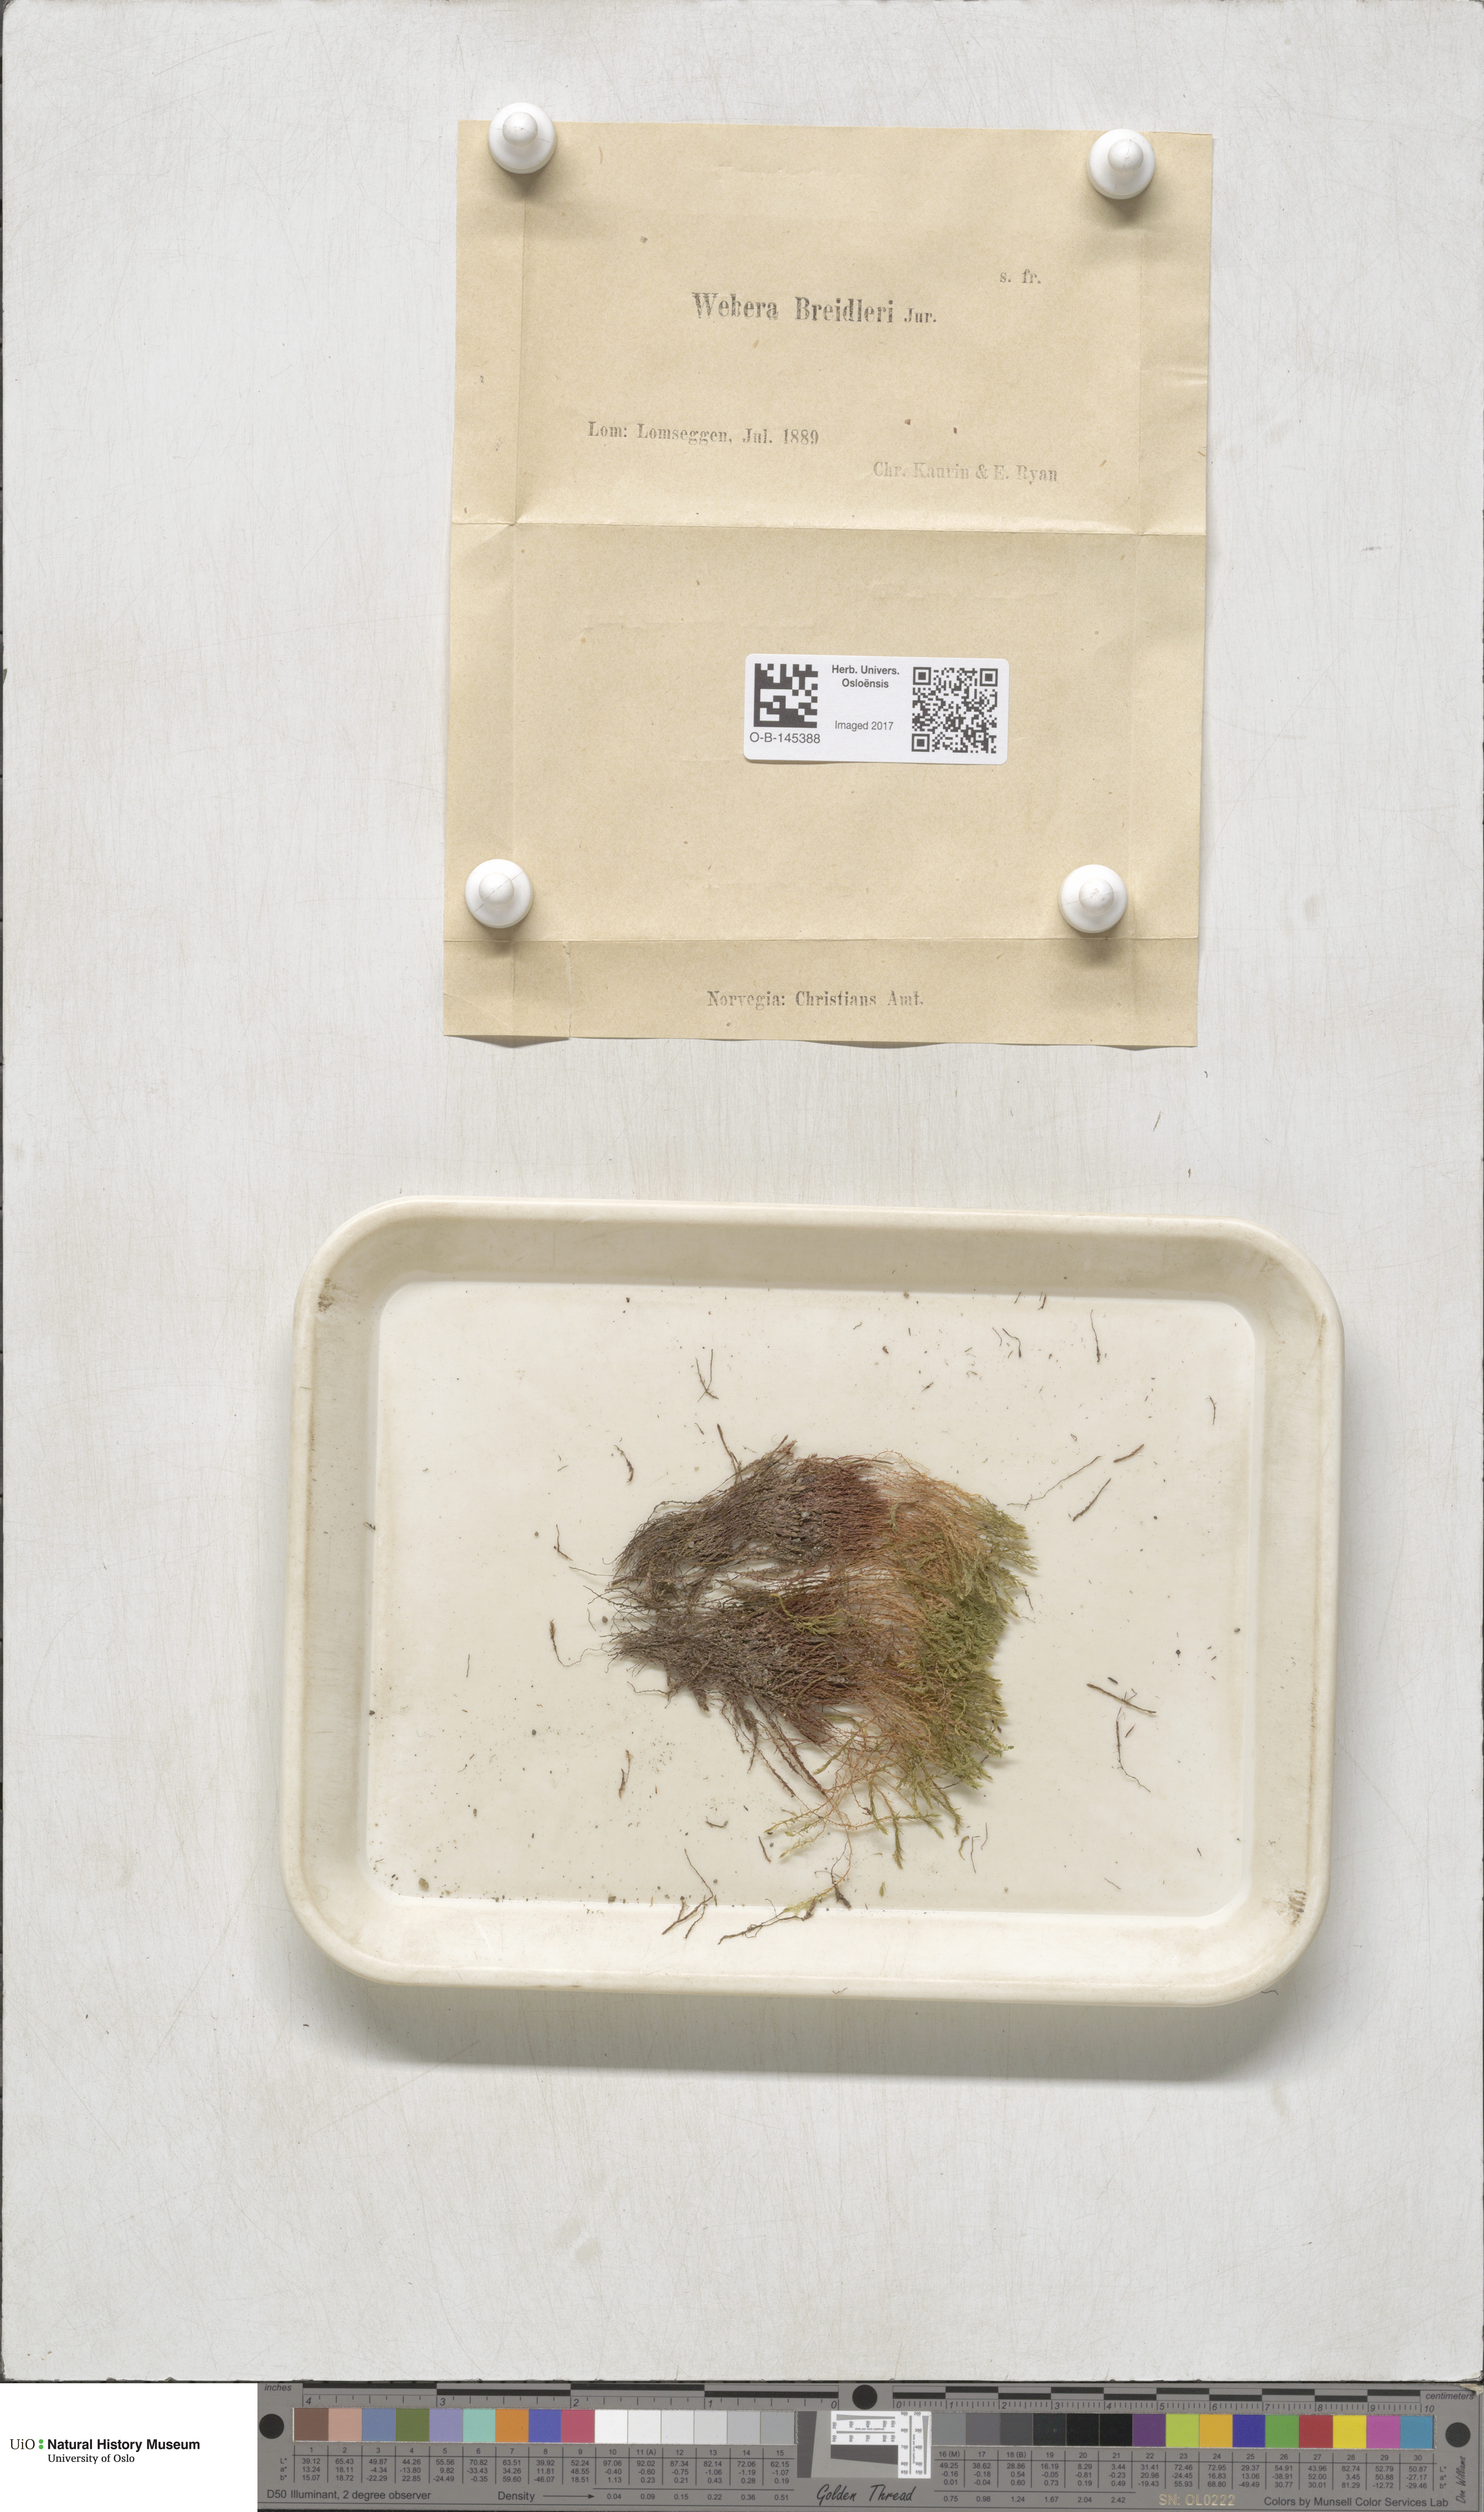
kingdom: Plantae
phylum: Bryophyta
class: Bryopsida
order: Bryales
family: Mniaceae
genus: Pohlia
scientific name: Pohlia ludwigii
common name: Ludwig's thread-moss
